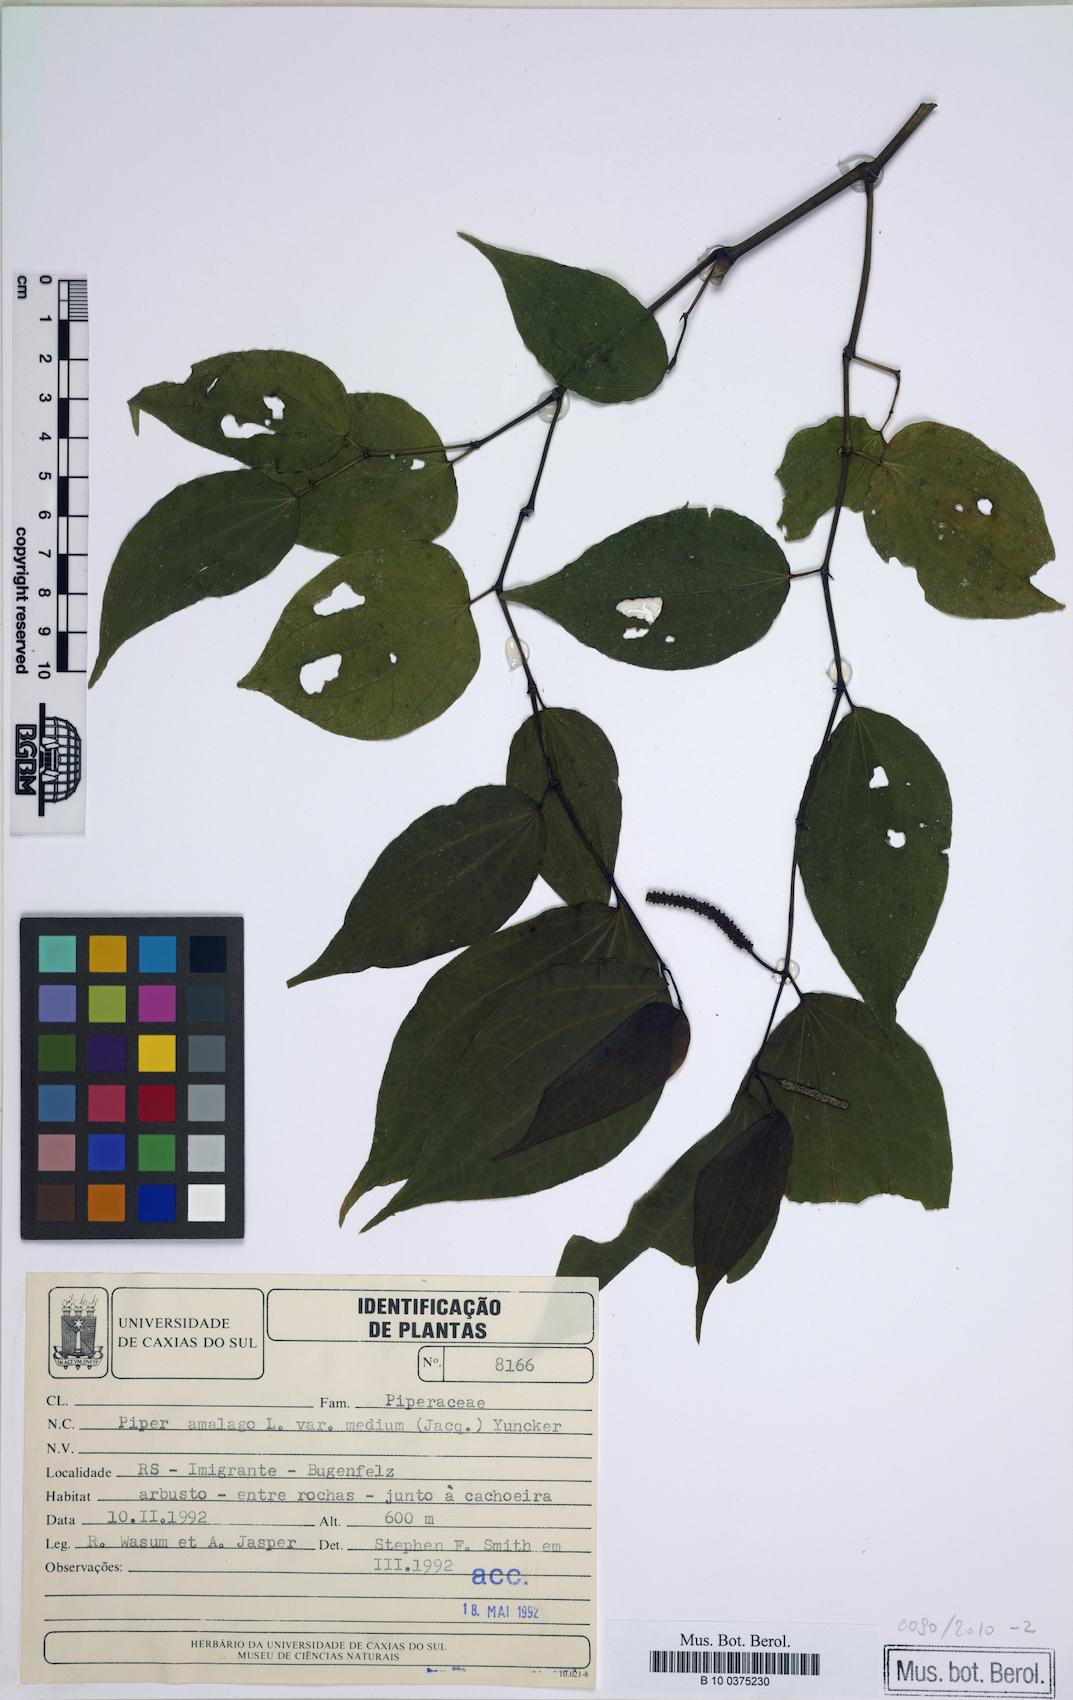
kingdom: Plantae
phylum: Tracheophyta
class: Magnoliopsida
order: Piperales
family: Piperaceae
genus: Piper
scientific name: Piper amalago
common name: Pepper-elder
